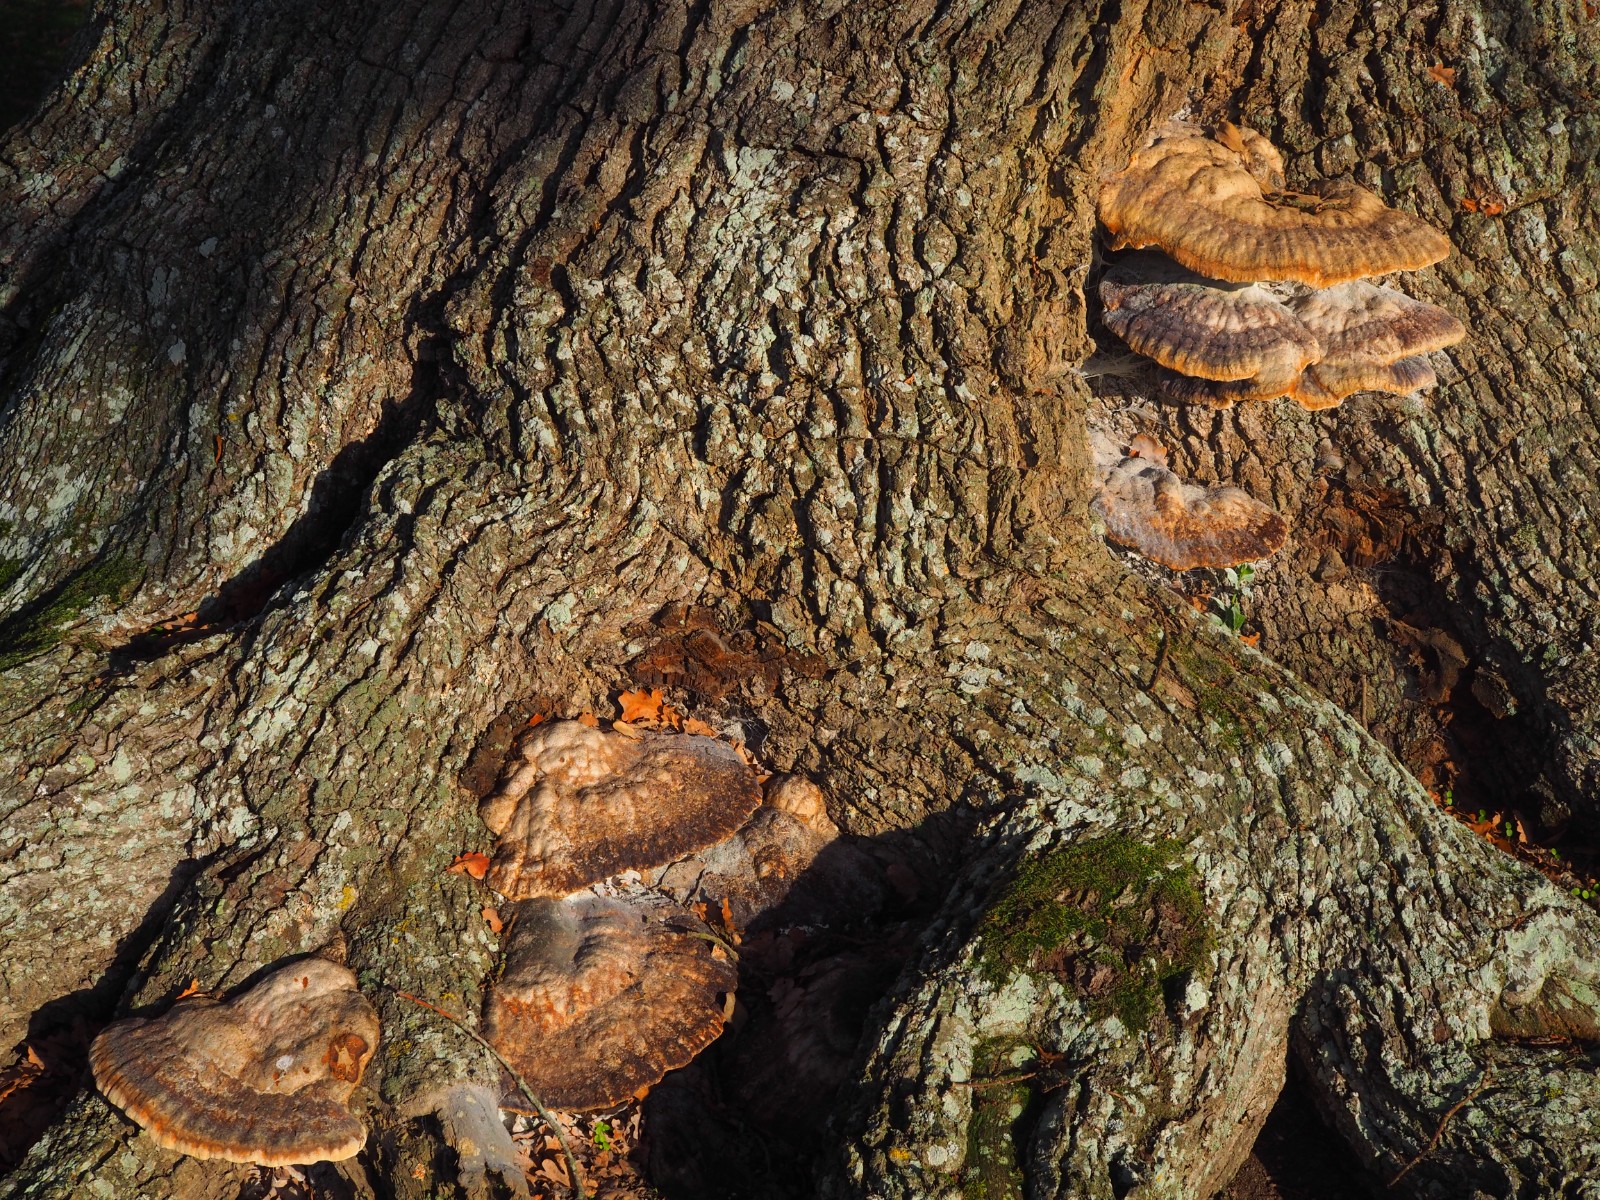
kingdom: Fungi
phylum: Basidiomycota
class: Agaricomycetes
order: Hymenochaetales
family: Hymenochaetaceae
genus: Pseudoinonotus
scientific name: Pseudoinonotus dryadeus
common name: ege-spejlporesvamp
